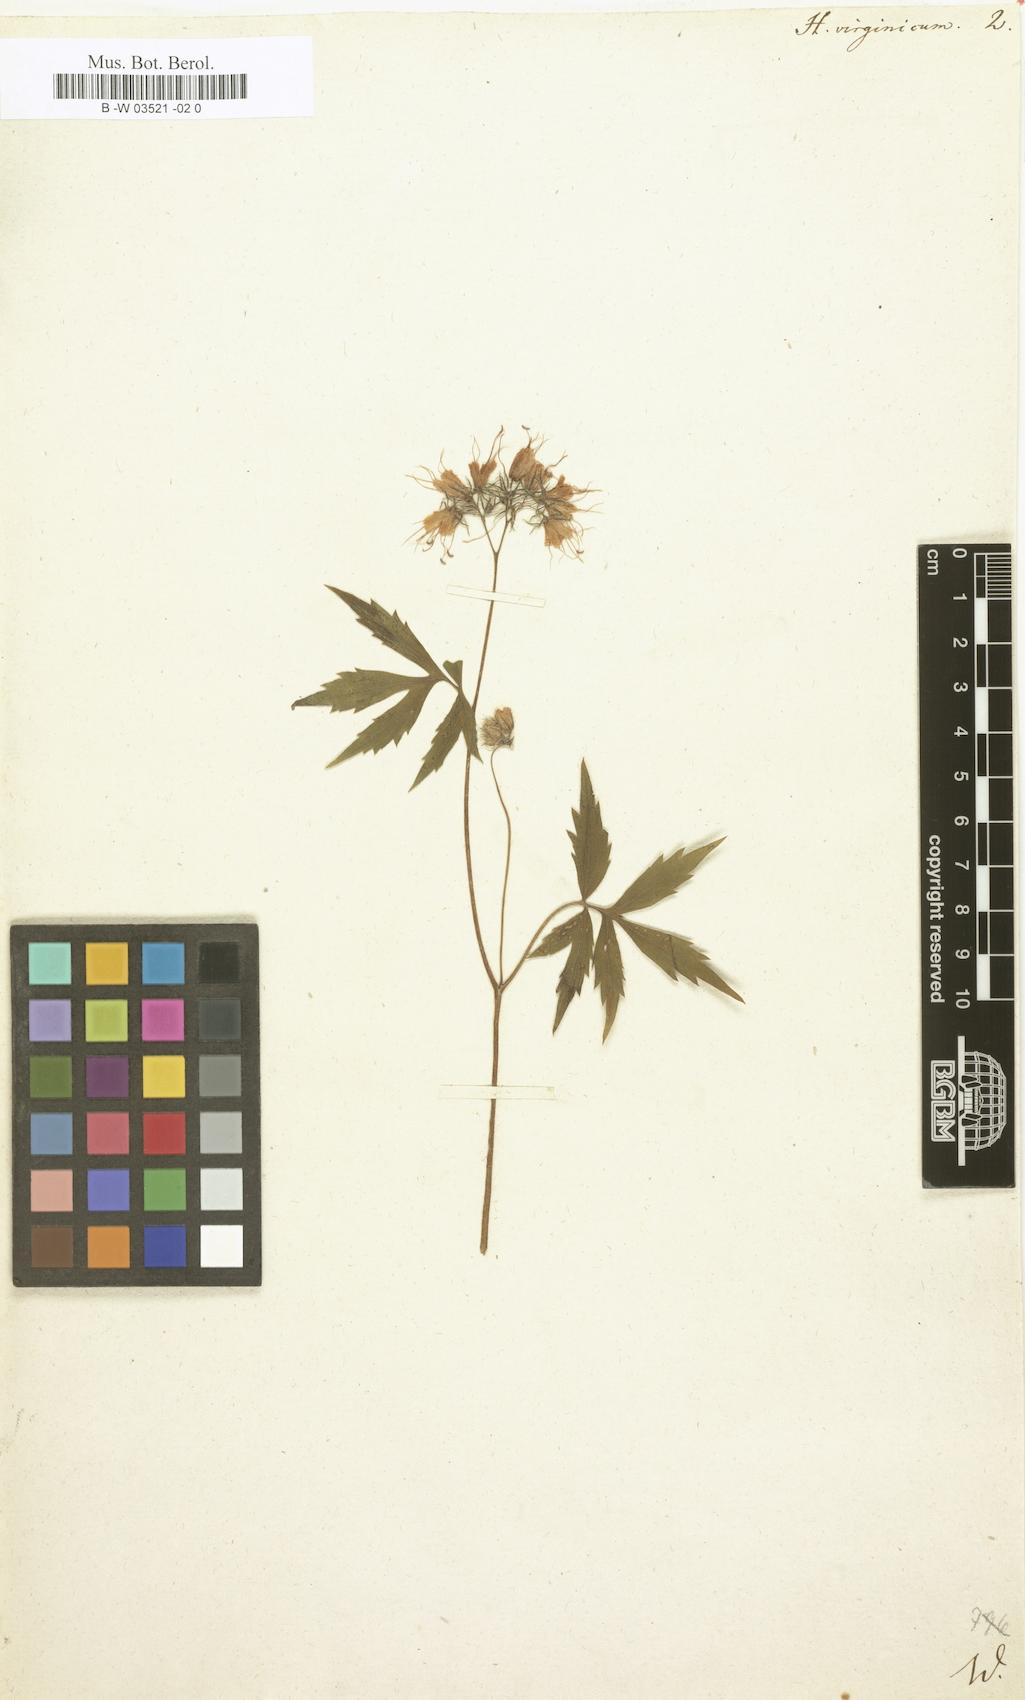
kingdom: Plantae
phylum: Tracheophyta
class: Magnoliopsida
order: Boraginales
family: Hydrophyllaceae
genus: Hydrophyllum
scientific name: Hydrophyllum virginianum
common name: Virginia waterleaf
